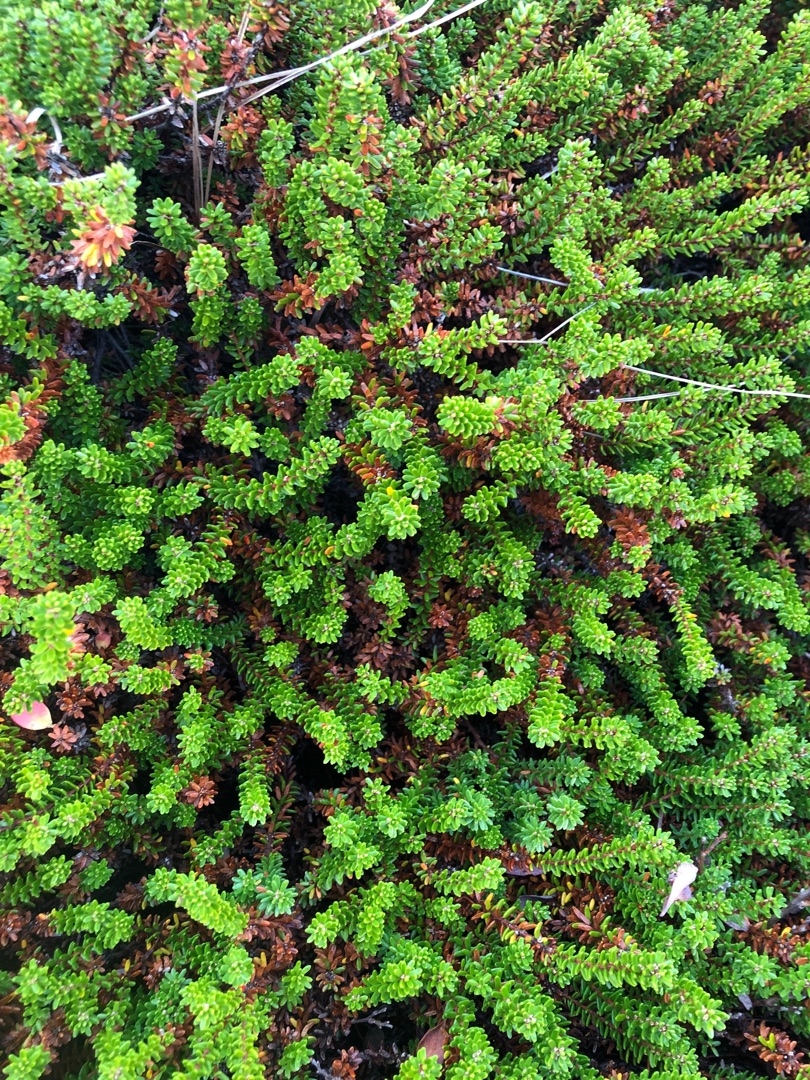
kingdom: Plantae
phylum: Tracheophyta
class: Magnoliopsida
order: Ericales
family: Ericaceae
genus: Empetrum
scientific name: Empetrum nigrum
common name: Revling
